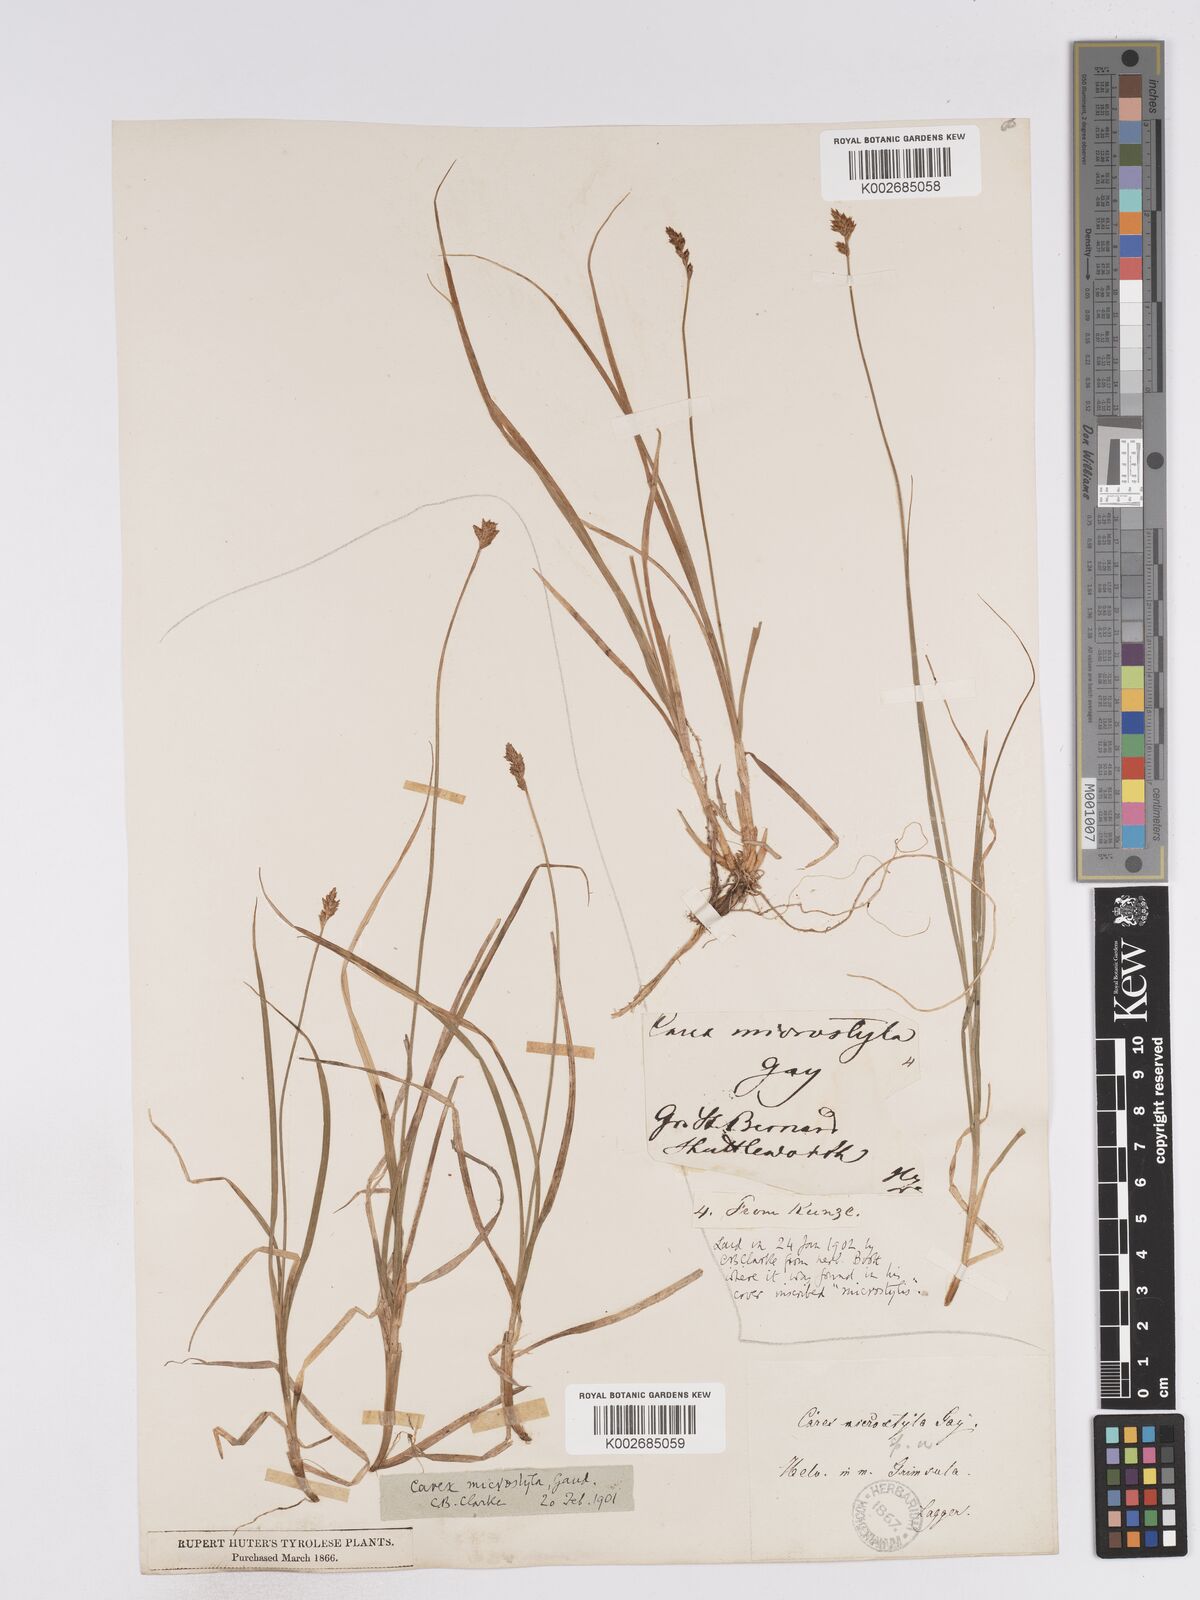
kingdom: Plantae
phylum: Tracheophyta
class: Liliopsida
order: Poales
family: Cyperaceae
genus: Carex
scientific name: Carex microstyla
